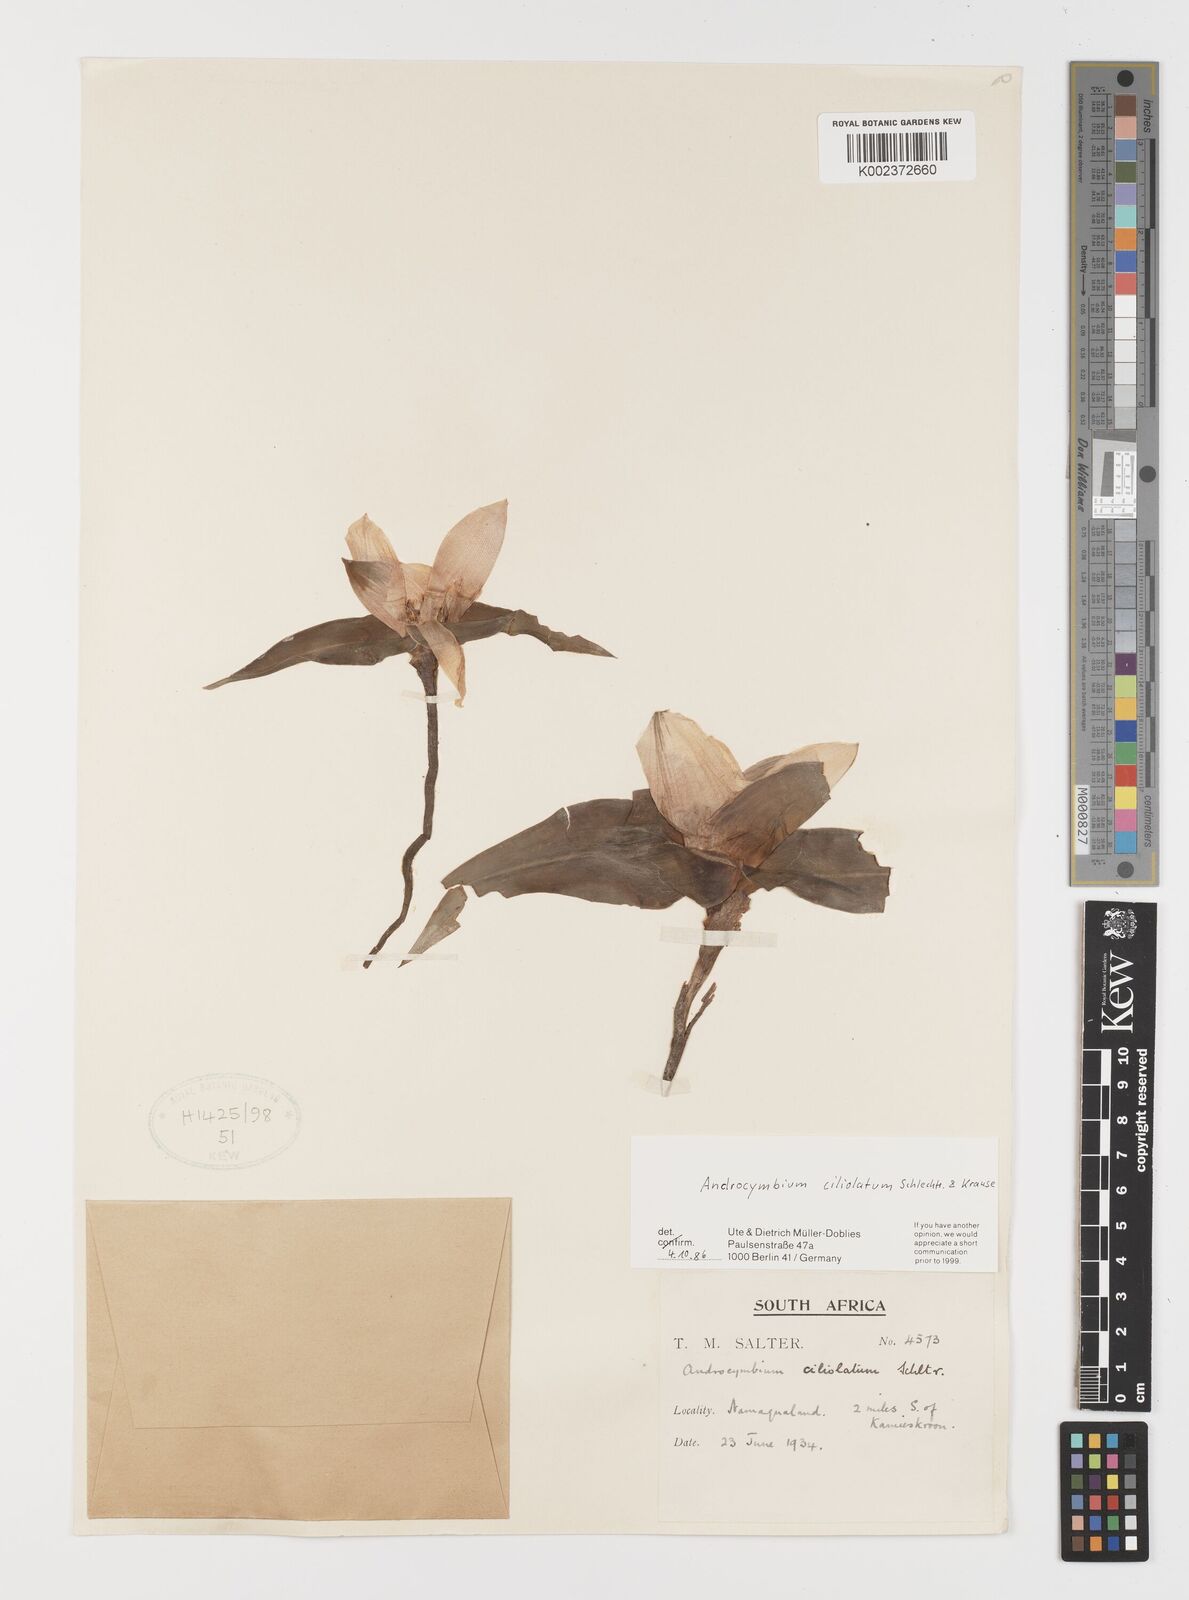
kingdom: Plantae
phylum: Tracheophyta
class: Liliopsida
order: Liliales
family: Colchicaceae
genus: Colchicum
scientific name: Colchicum capense
